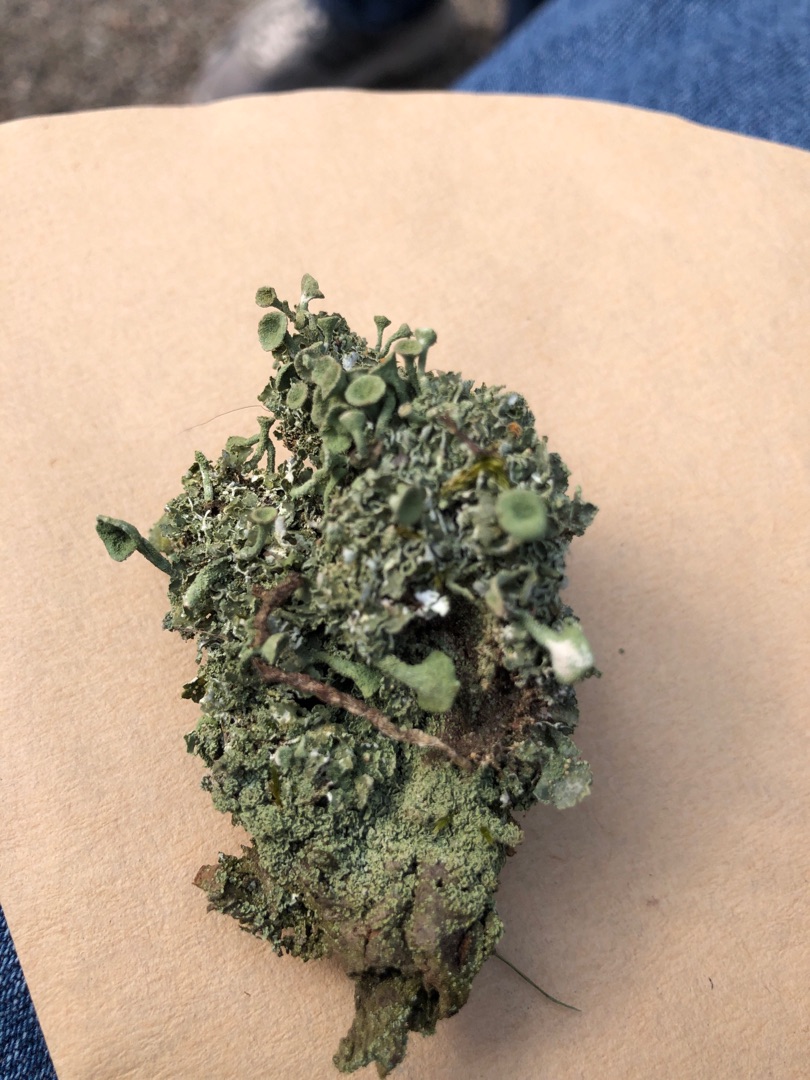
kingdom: Fungi
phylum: Ascomycota
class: Lecanoromycetes
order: Lecanorales
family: Cladoniaceae
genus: Cladonia
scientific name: Cladonia
